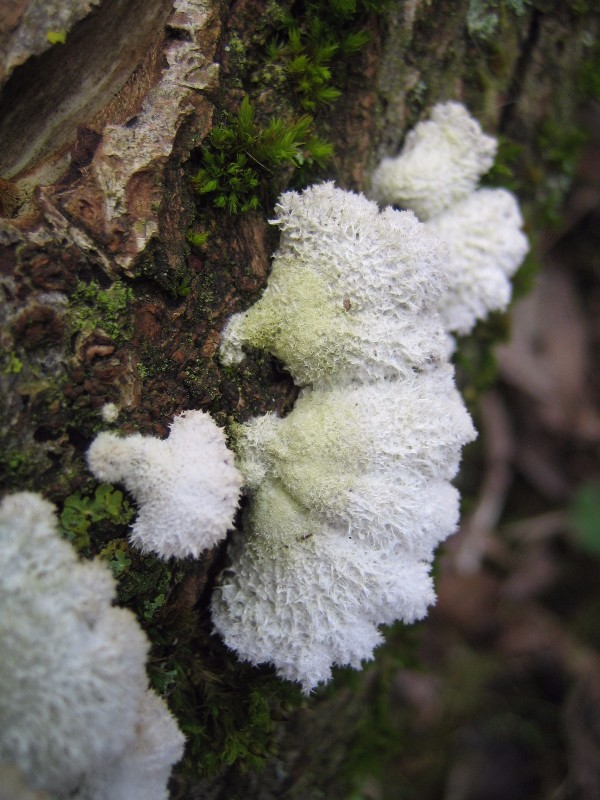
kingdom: Fungi
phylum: Basidiomycota
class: Agaricomycetes
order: Agaricales
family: Schizophyllaceae
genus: Schizophyllum
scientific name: Schizophyllum commune
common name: kløvblad
